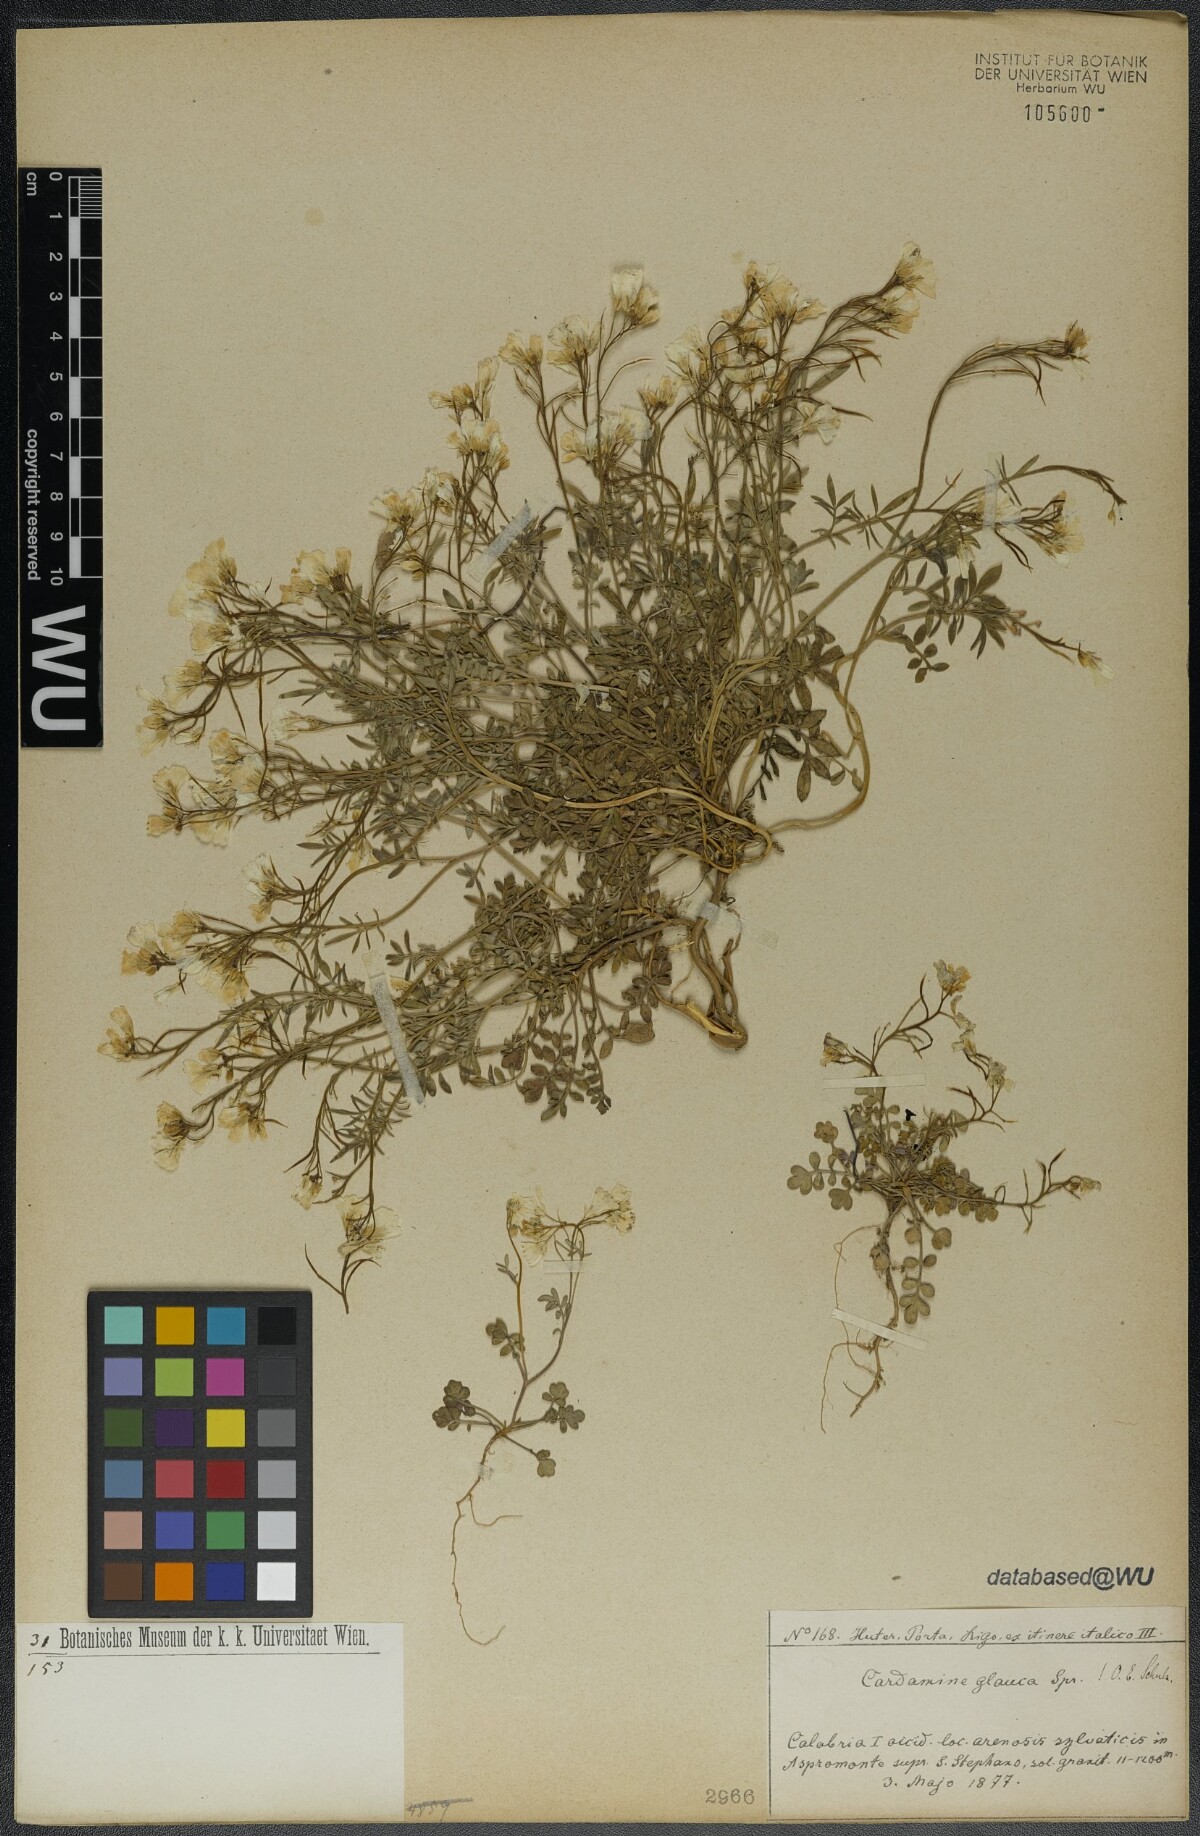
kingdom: Plantae
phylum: Tracheophyta
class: Magnoliopsida
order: Brassicales
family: Brassicaceae
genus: Cardamine
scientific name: Cardamine glauca
